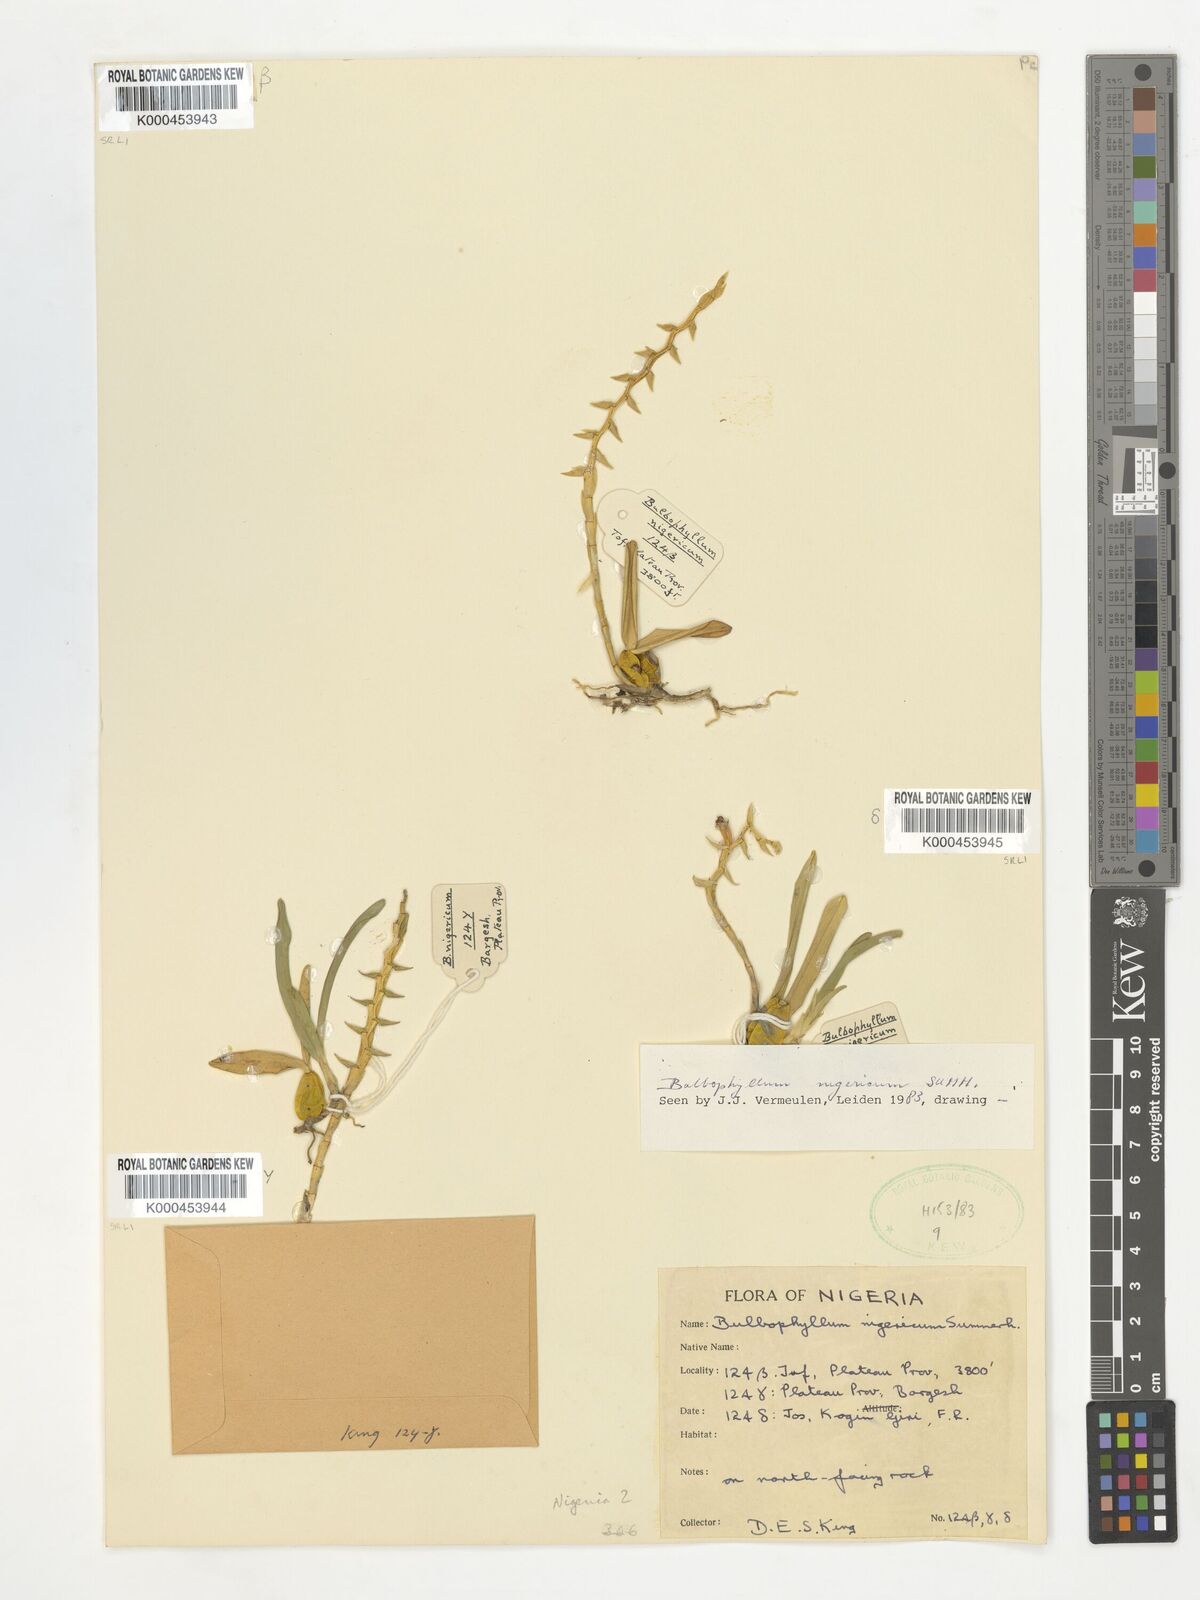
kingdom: Plantae
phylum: Tracheophyta
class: Liliopsida
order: Asparagales
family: Orchidaceae
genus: Bulbophyllum
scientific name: Bulbophyllum nigericum
